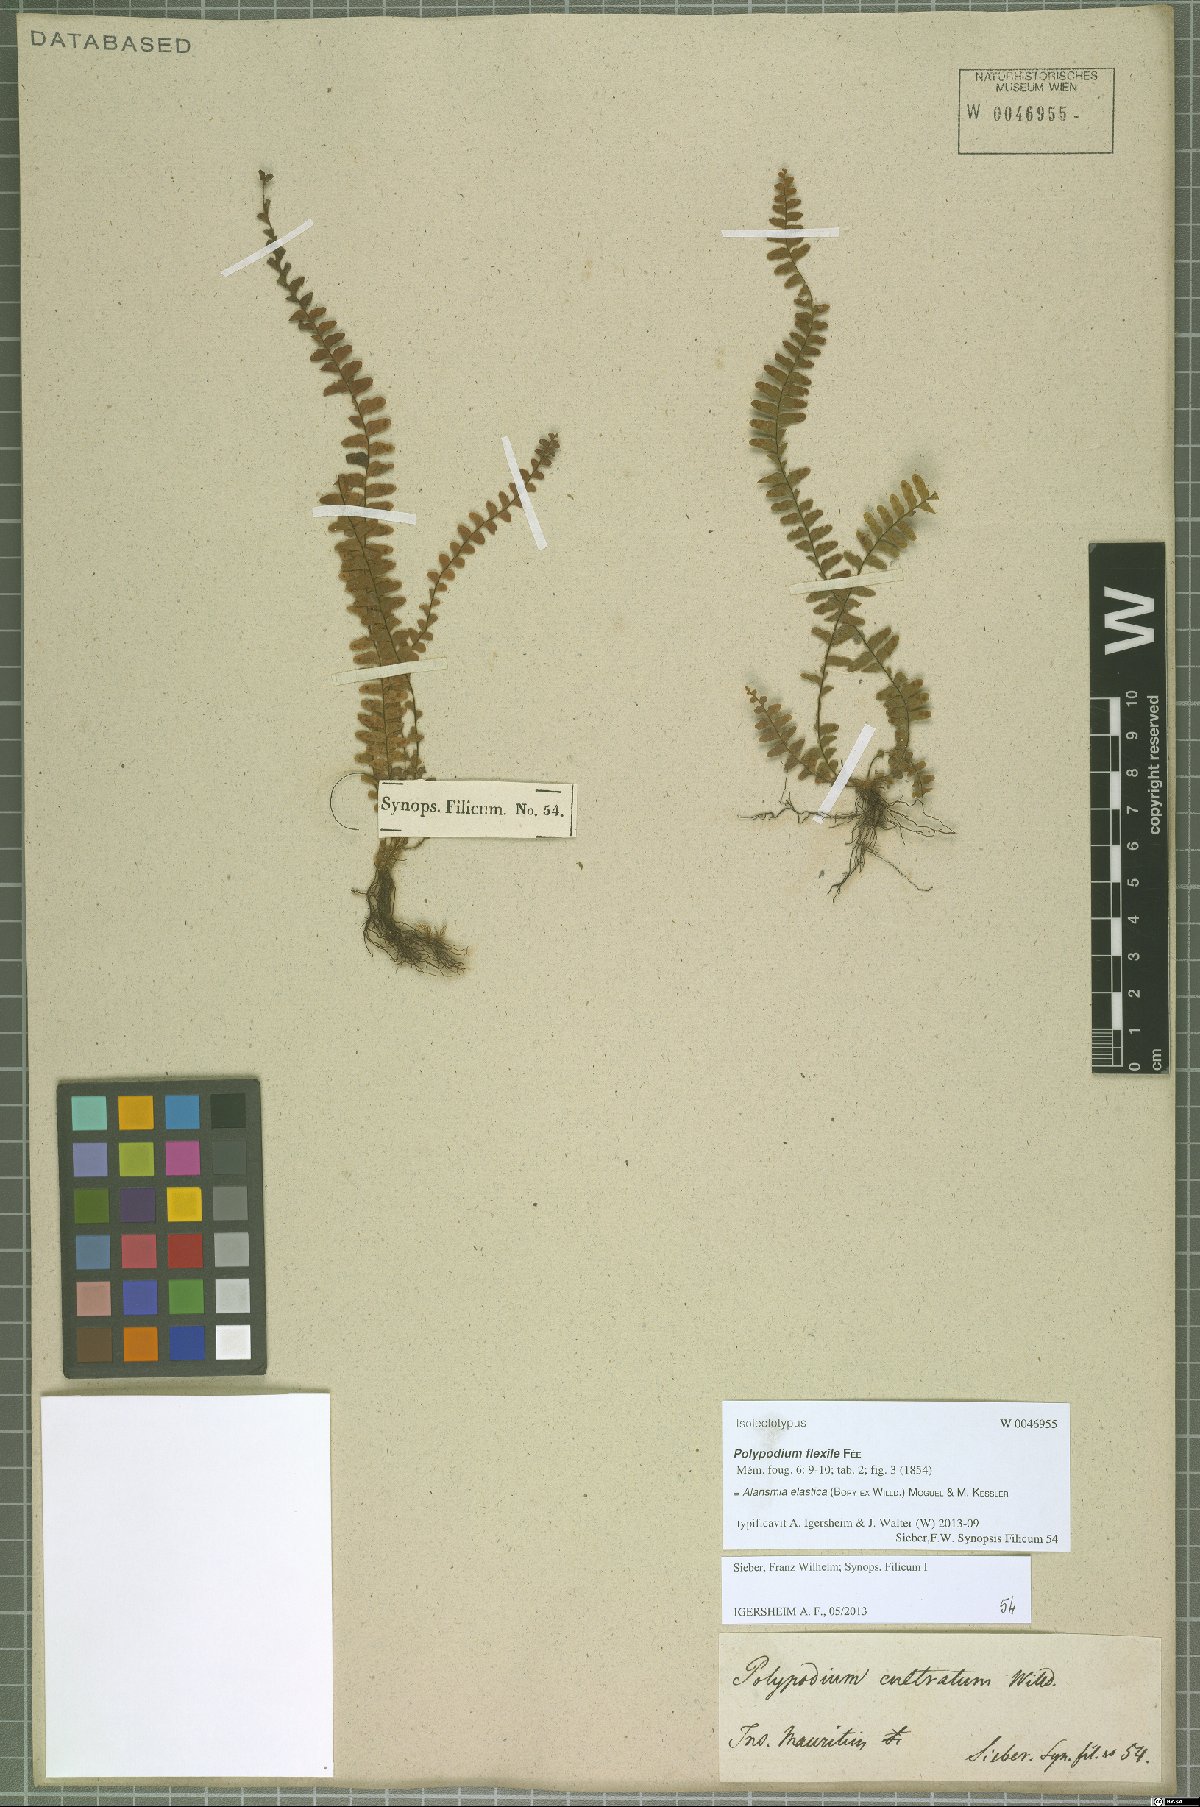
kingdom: Plantae
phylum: Tracheophyta
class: Polypodiopsida
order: Polypodiales
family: Polypodiaceae
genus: Alansmia
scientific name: Alansmia elastica
